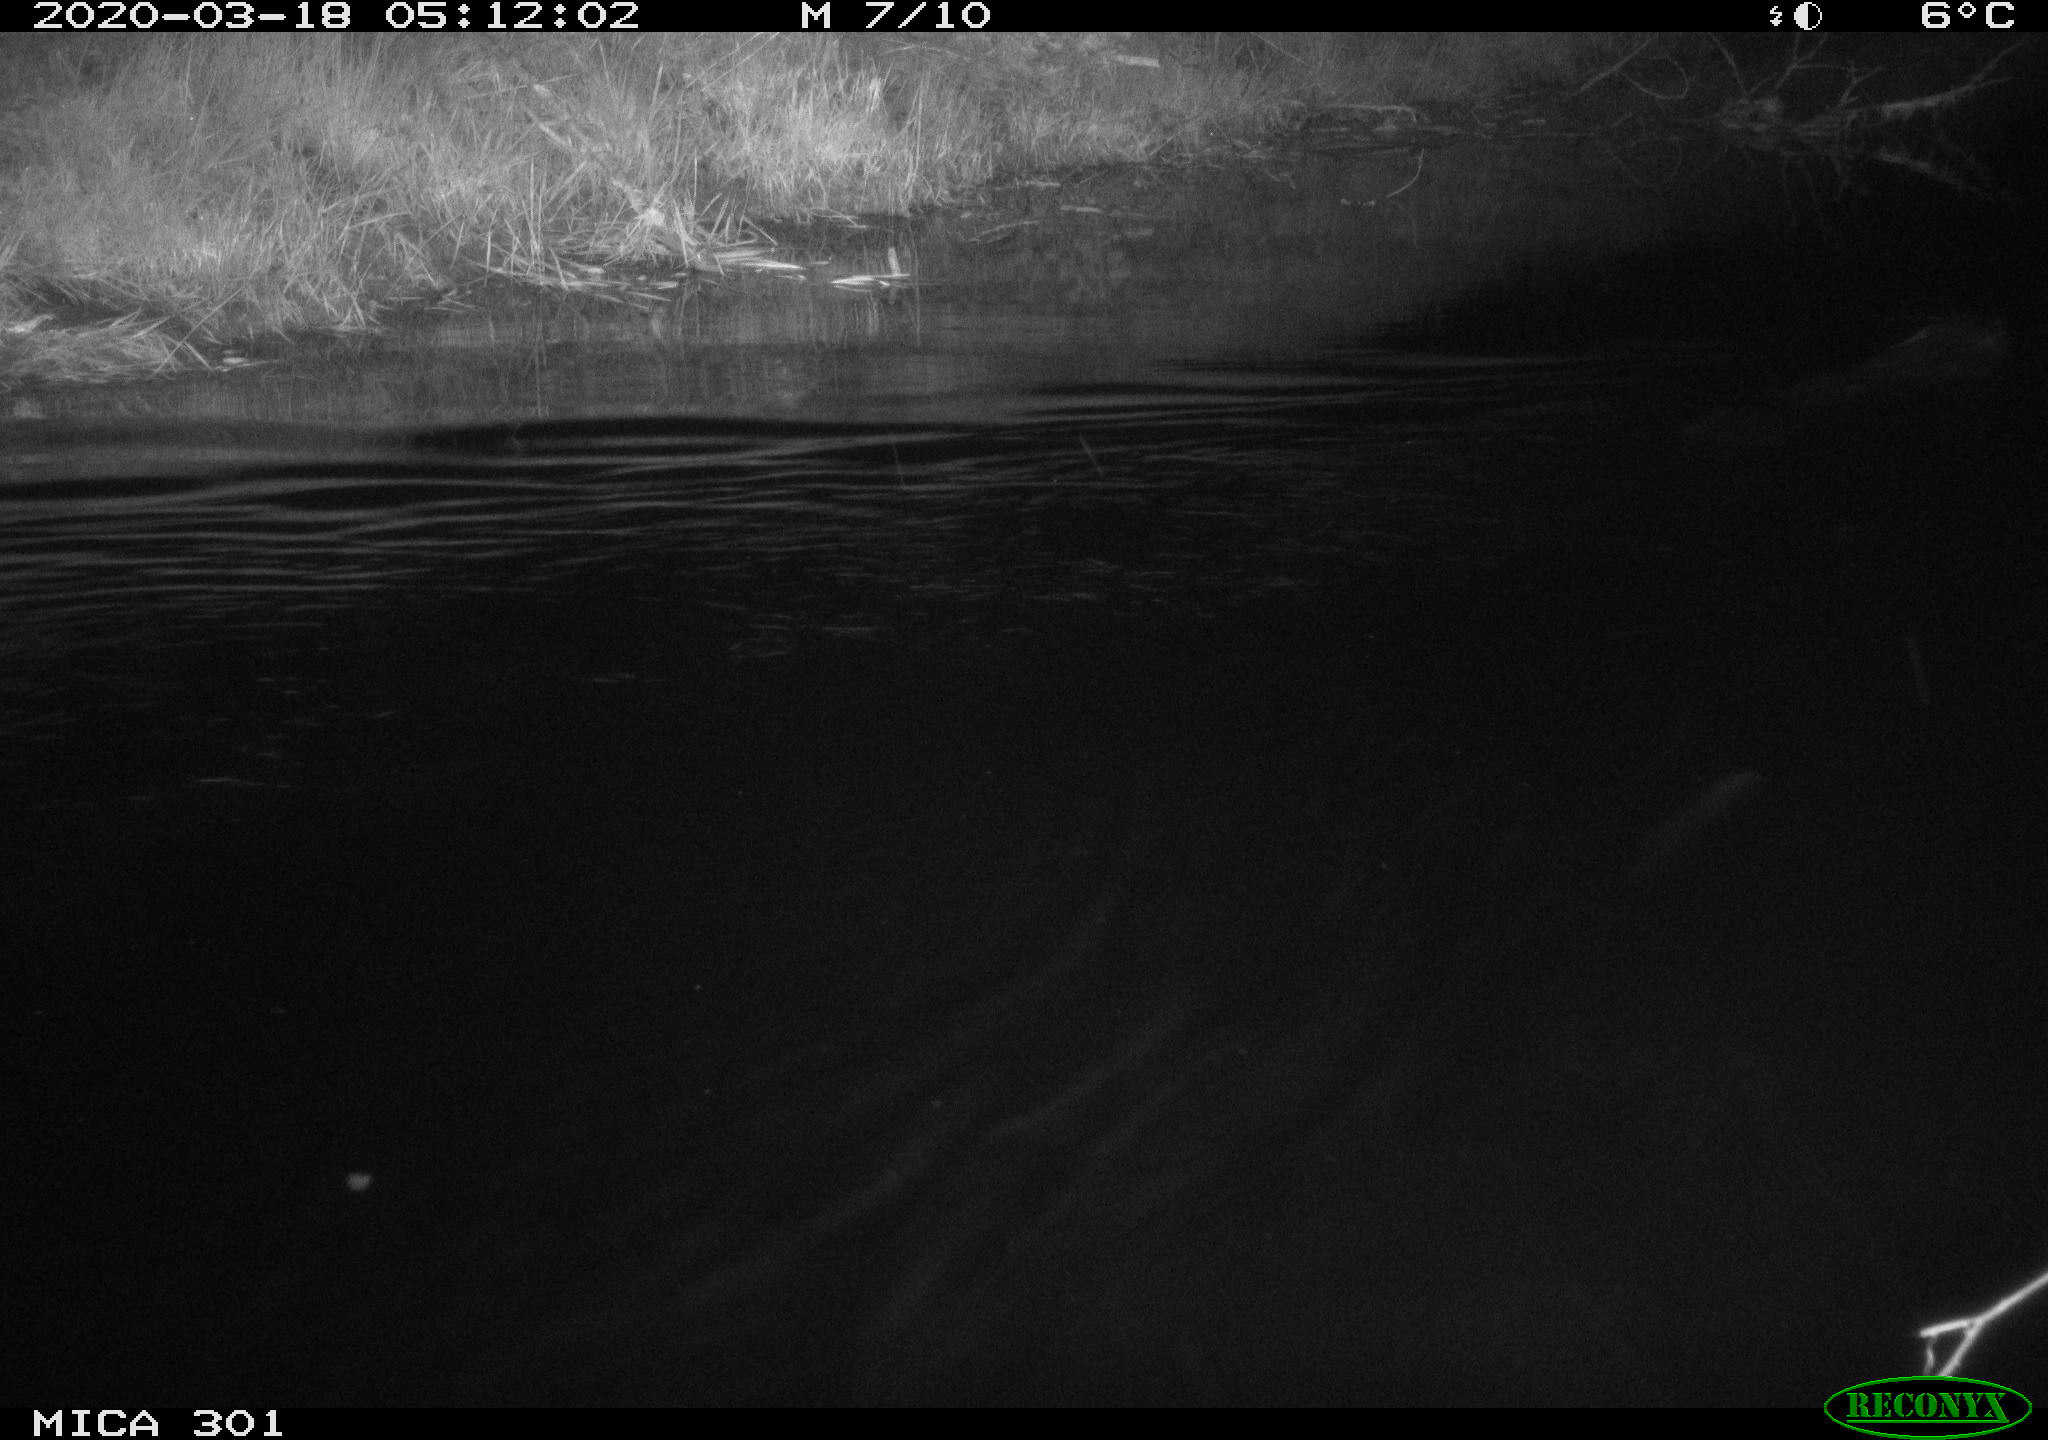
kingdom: Animalia
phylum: Chordata
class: Mammalia
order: Rodentia
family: Castoridae
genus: Castor
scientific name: Castor fiber
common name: Eurasian beaver
